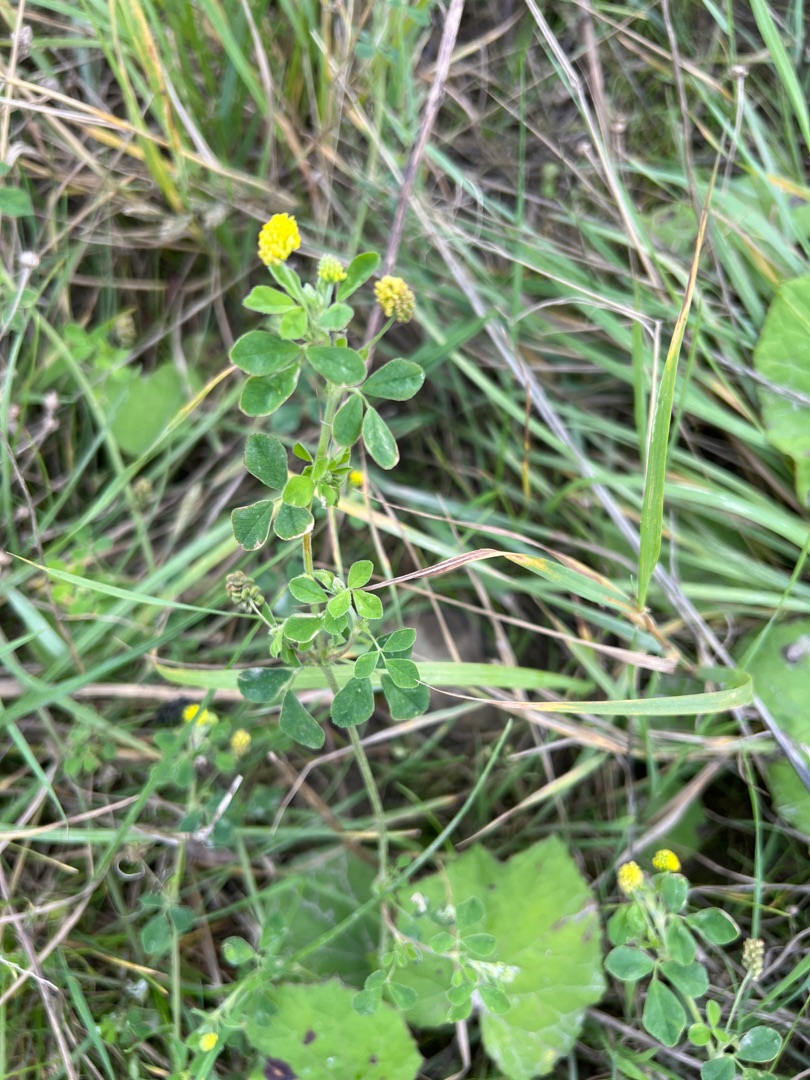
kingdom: Plantae
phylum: Tracheophyta
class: Magnoliopsida
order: Fabales
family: Fabaceae
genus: Medicago
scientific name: Medicago lupulina
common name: Humle-sneglebælg
